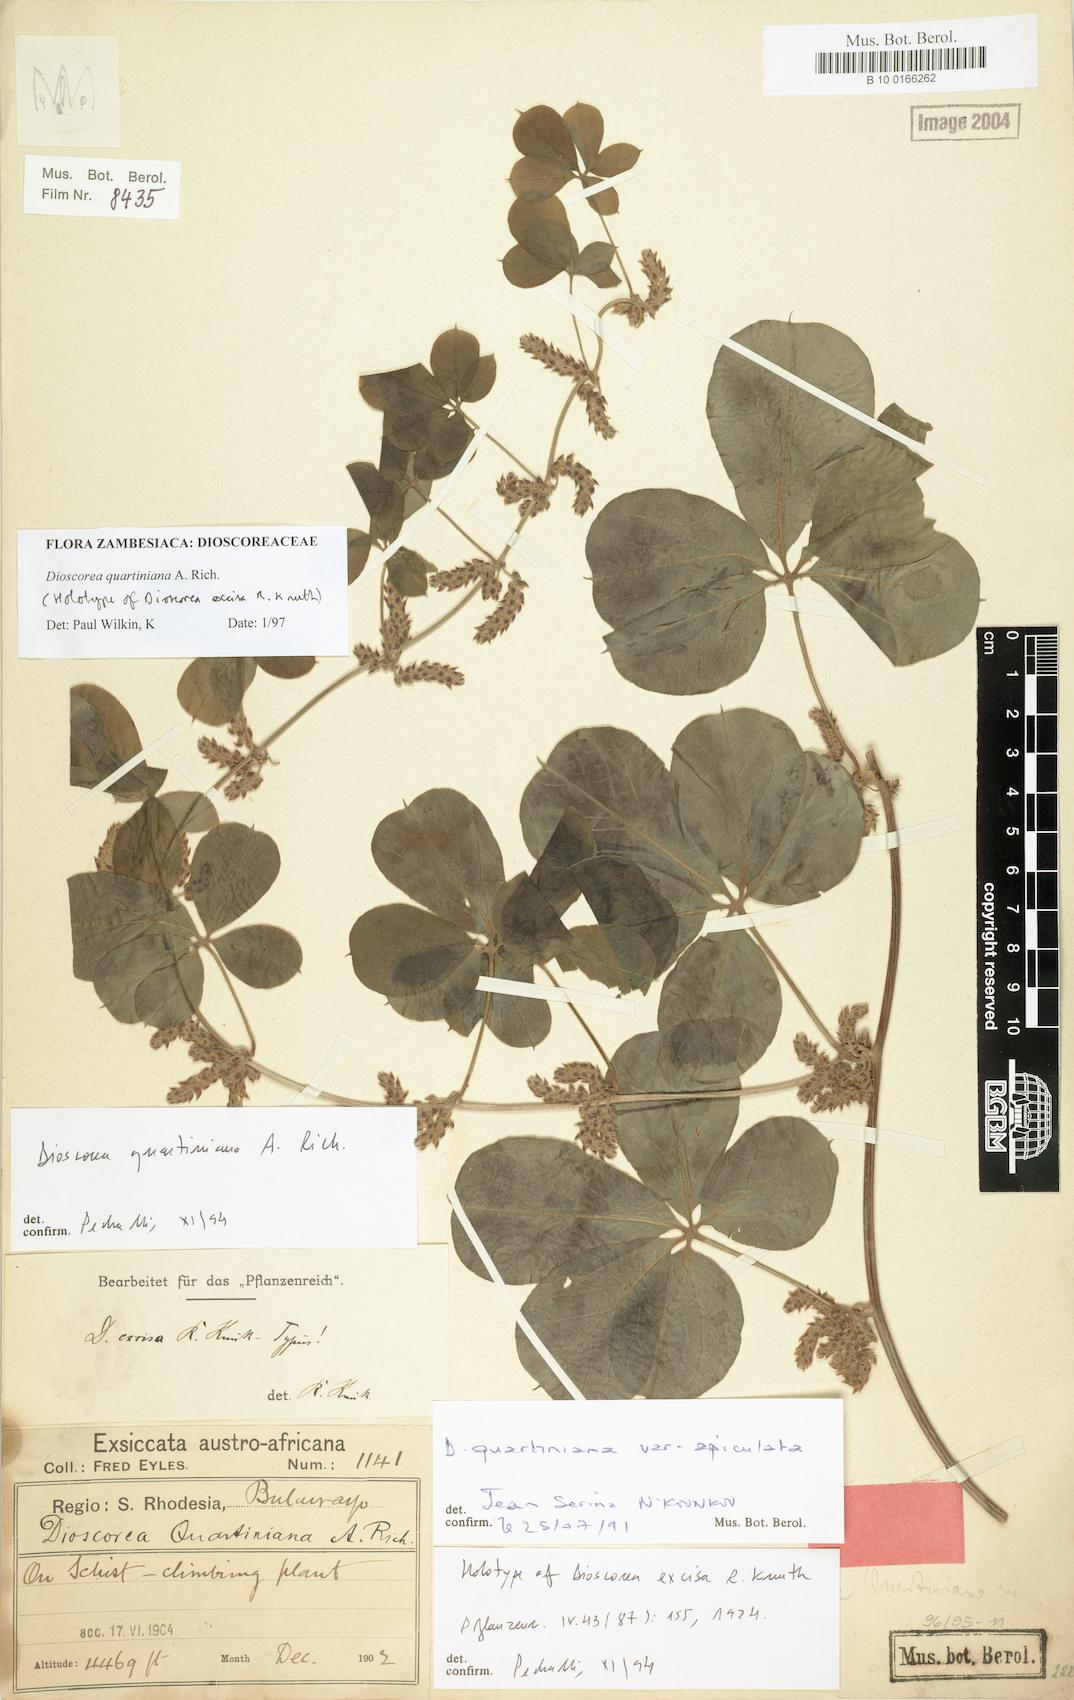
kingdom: Plantae
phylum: Tracheophyta
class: Liliopsida
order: Dioscoreales
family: Dioscoreaceae
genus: Dioscorea
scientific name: Dioscorea quartiniana
